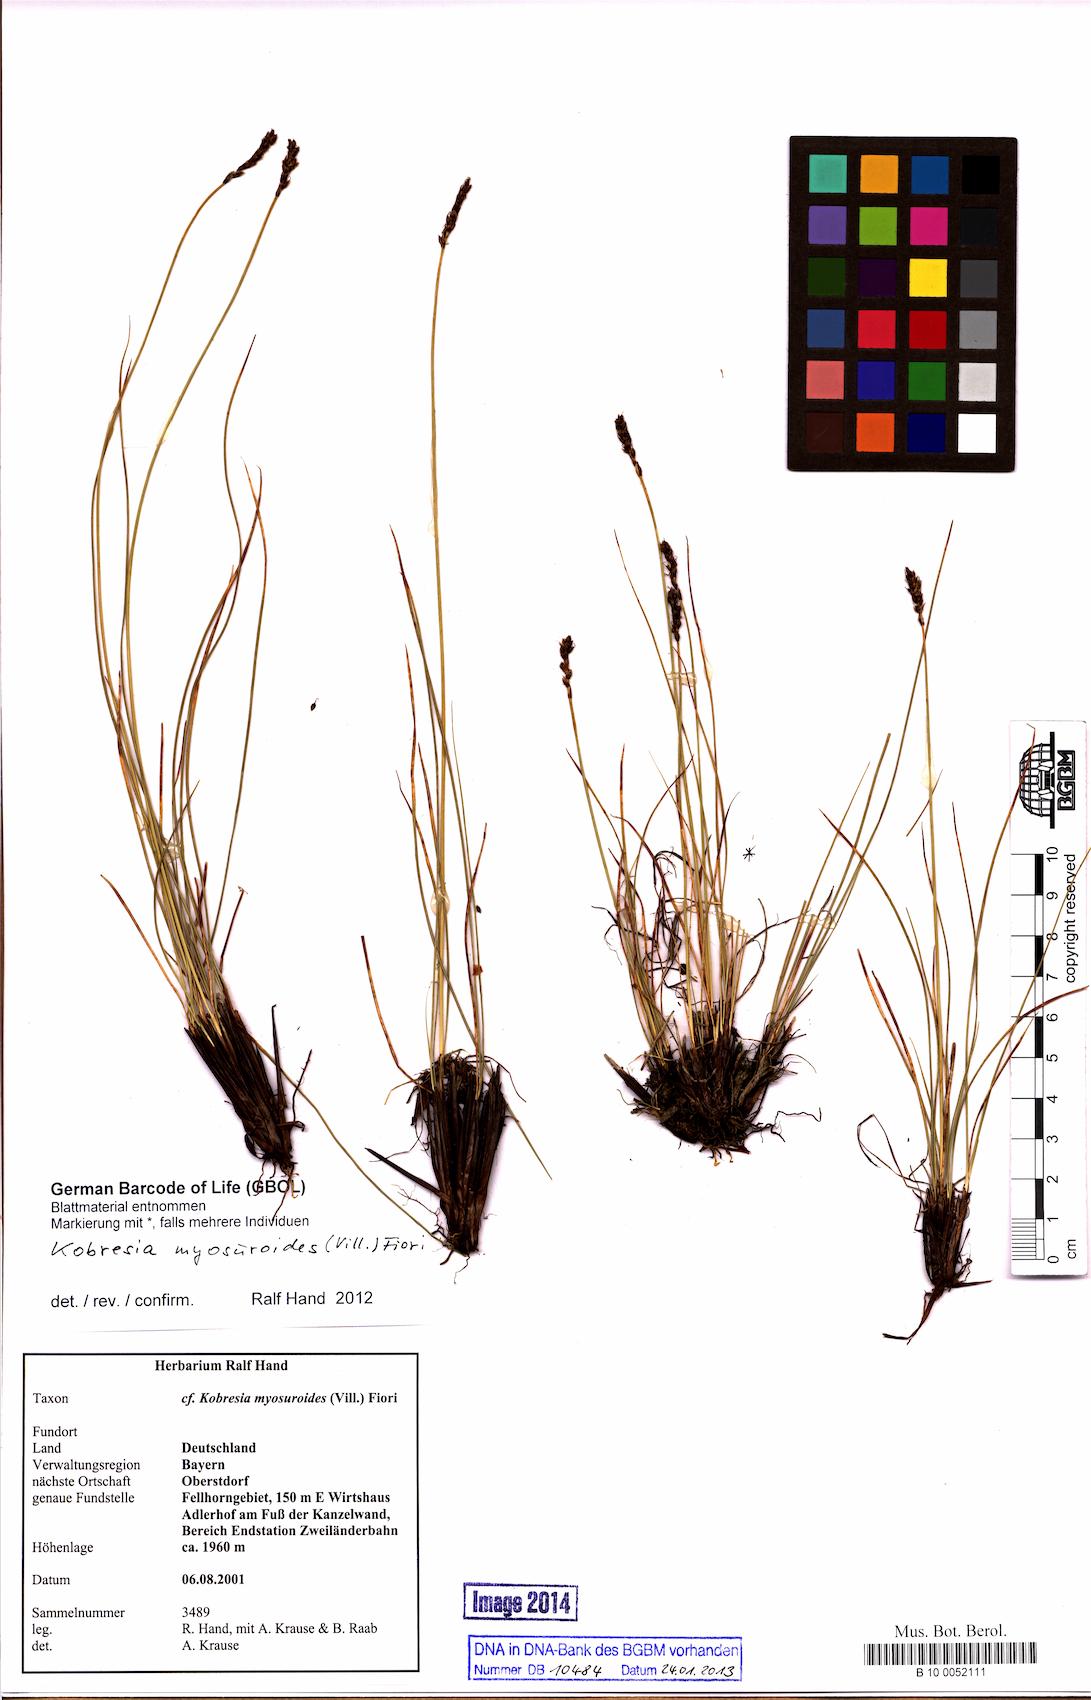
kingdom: Plantae
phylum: Tracheophyta
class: Liliopsida
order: Poales
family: Cyperaceae
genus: Carex
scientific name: Carex myosuroides
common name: Bellard's bog sedge
